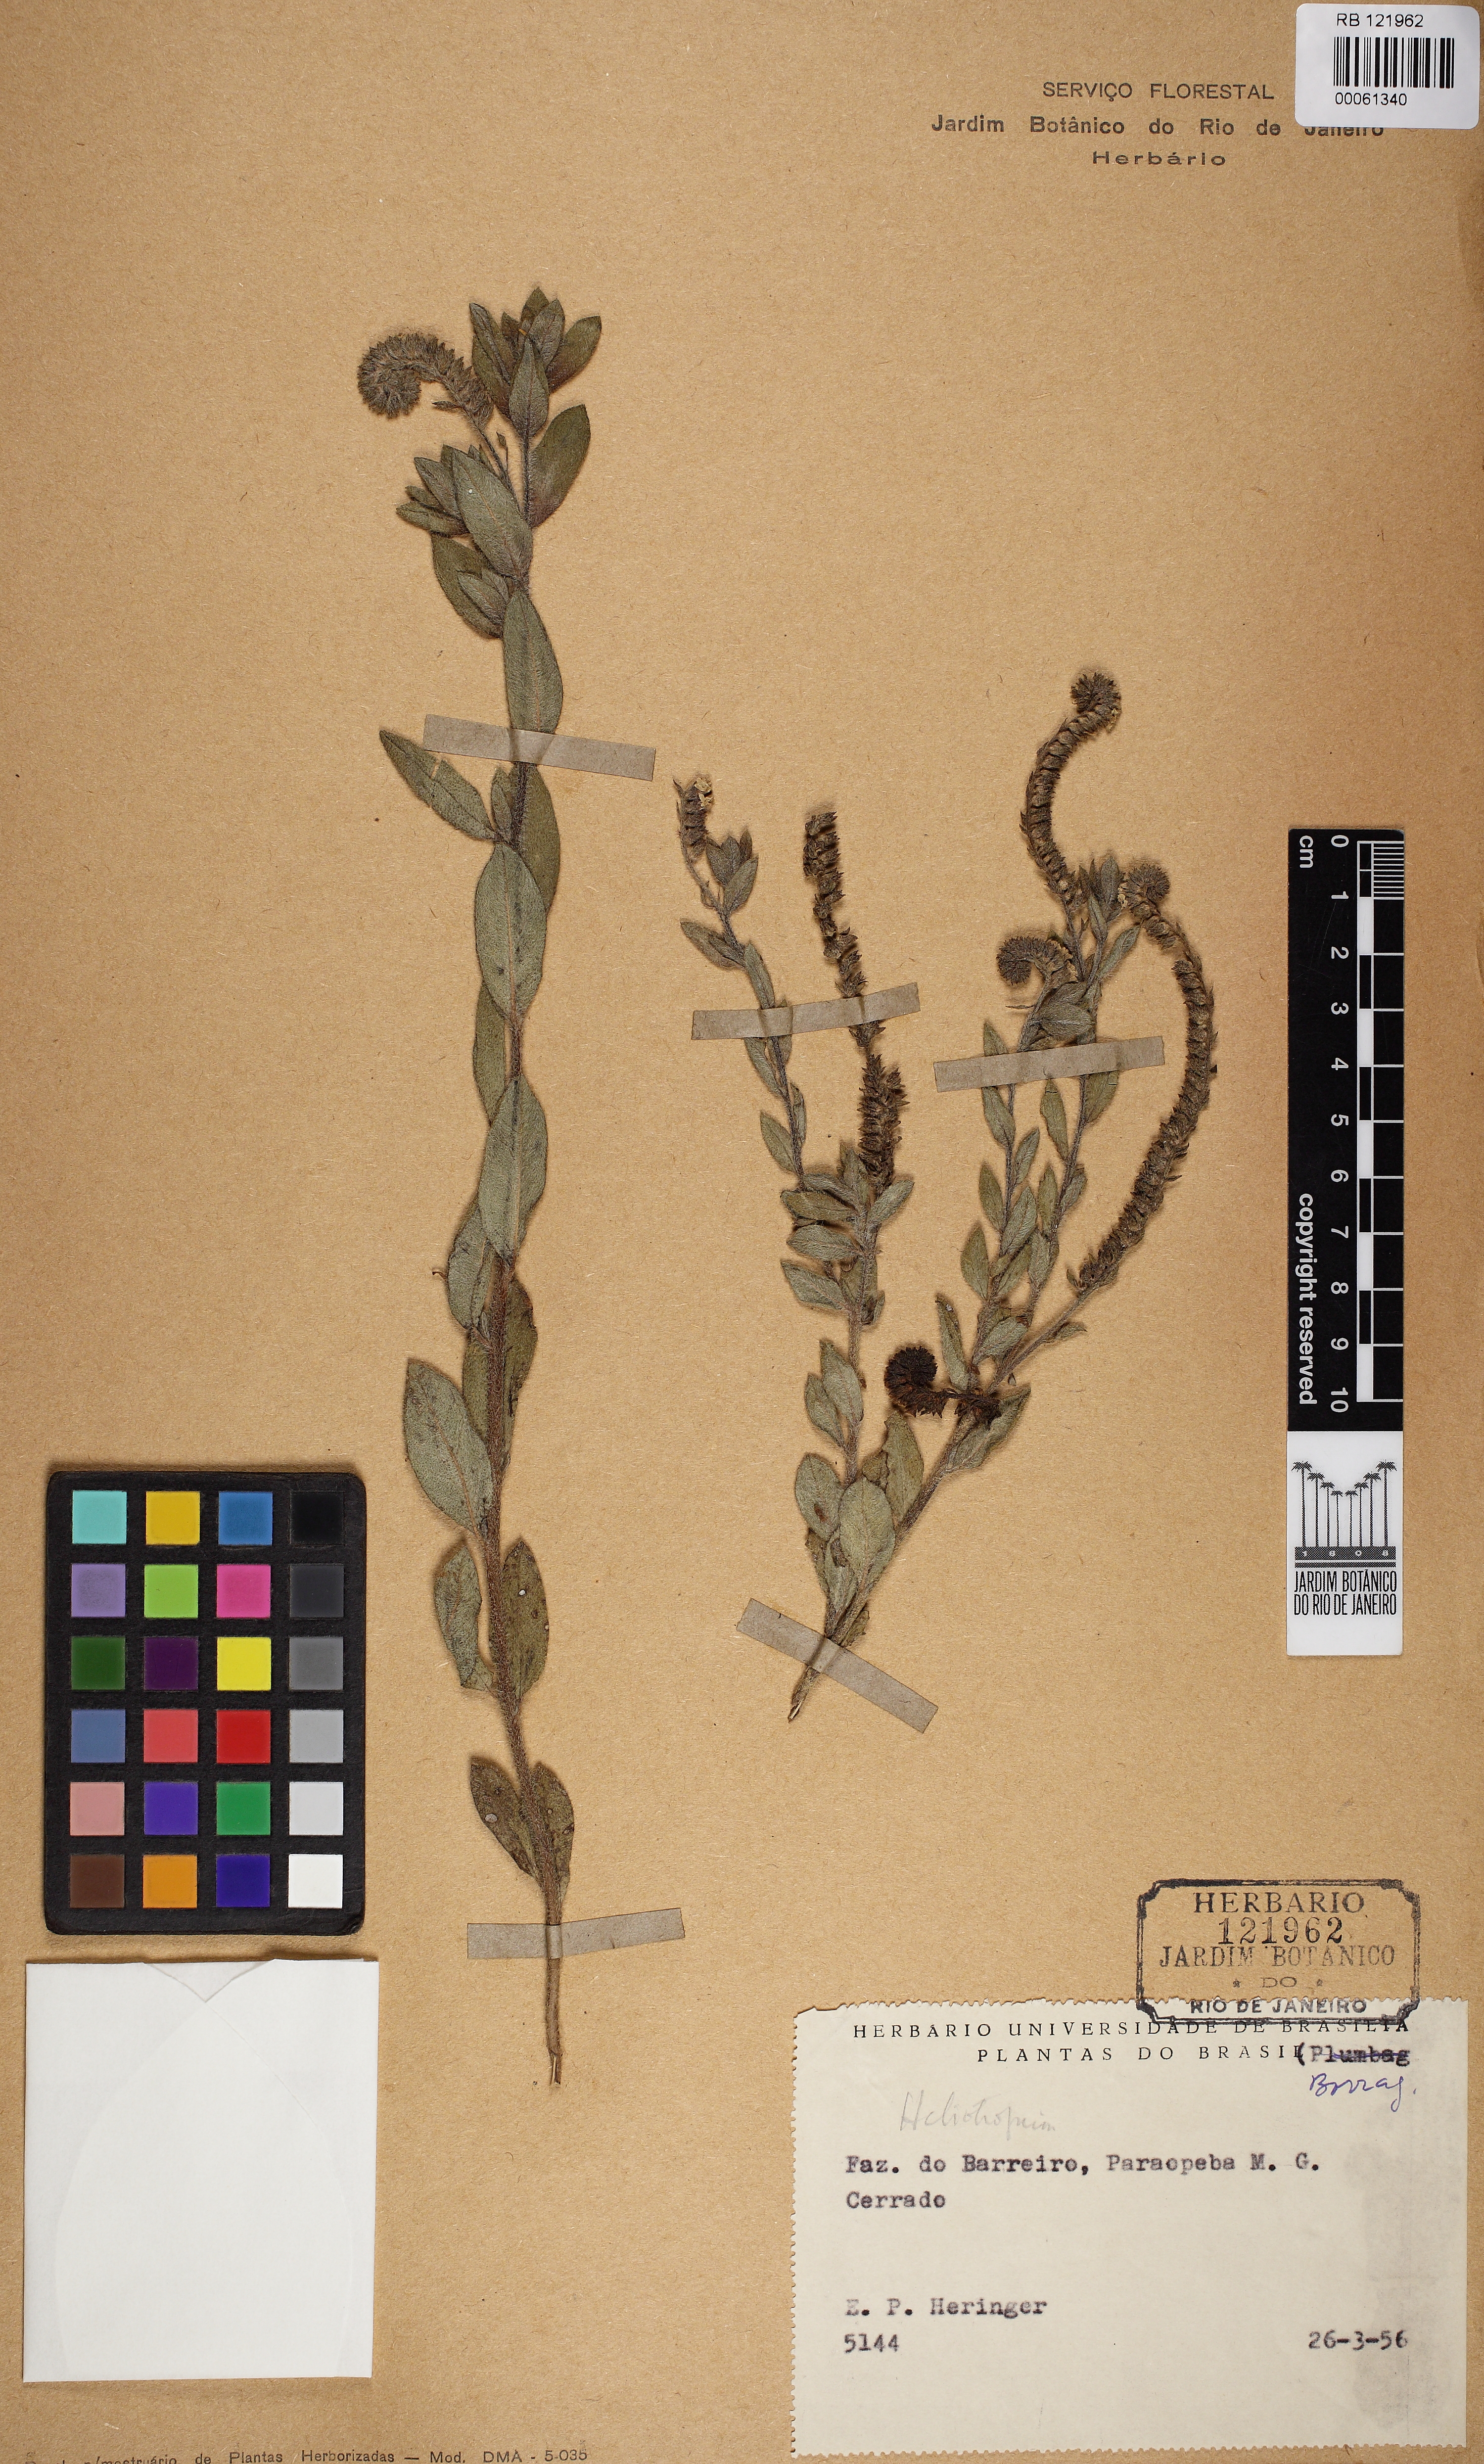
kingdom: Plantae
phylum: Tracheophyta
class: Magnoliopsida
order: Boraginales
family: Heliotropiaceae
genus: Euploca
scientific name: Euploca decorticans
